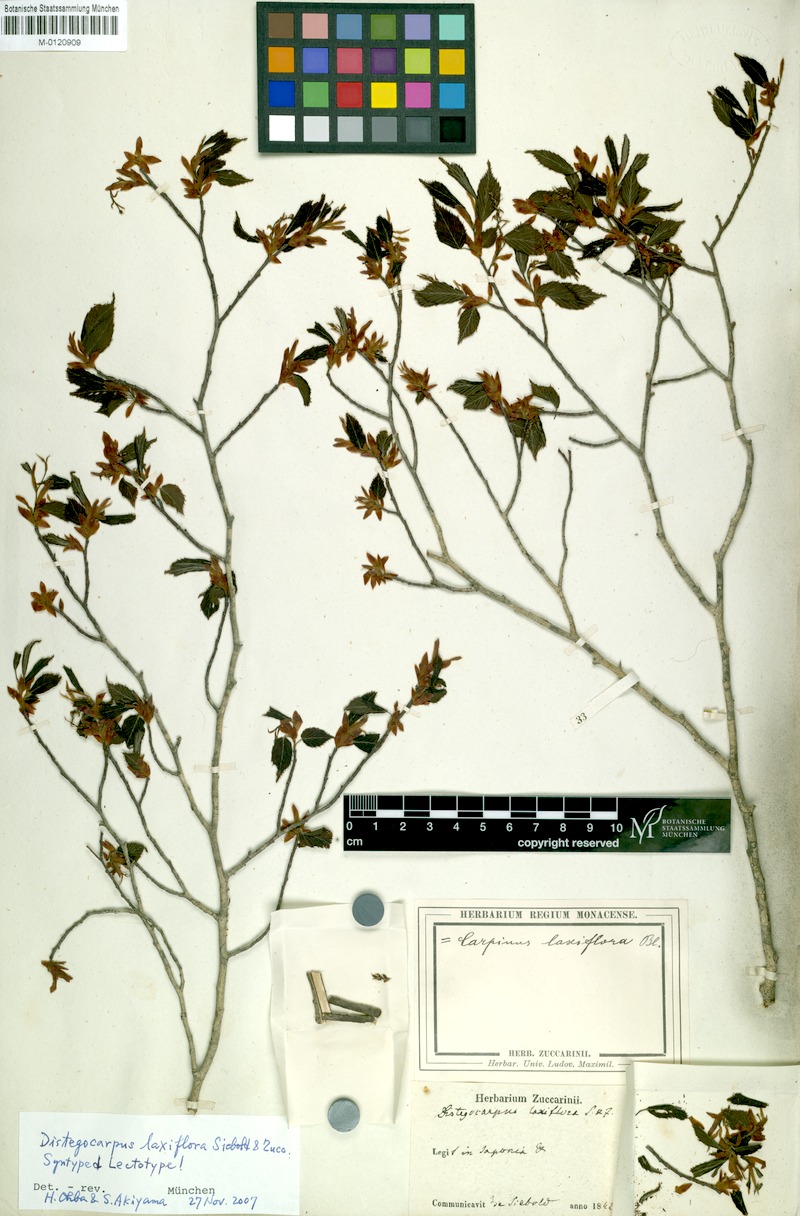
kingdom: Plantae
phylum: Tracheophyta
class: Magnoliopsida
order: Fagales
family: Betulaceae
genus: Carpinus
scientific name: Carpinus laxiflora
